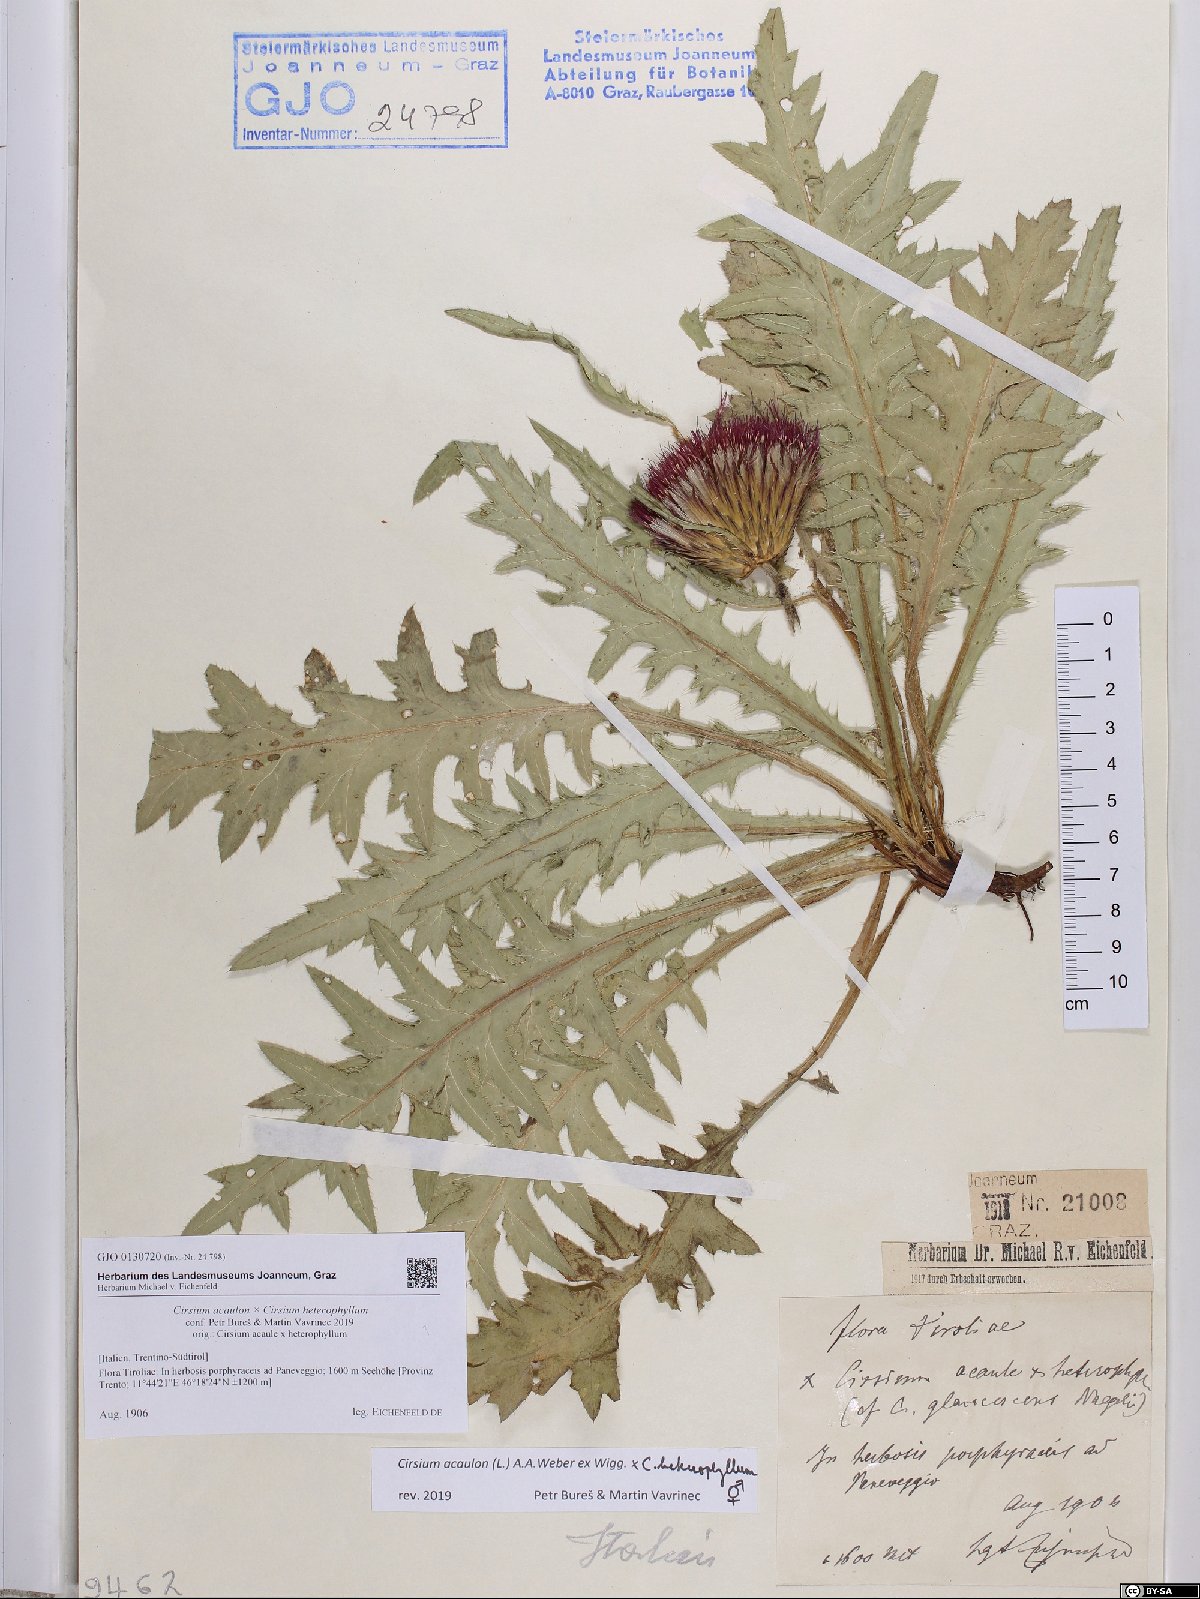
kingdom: Plantae
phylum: Tracheophyta
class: Magnoliopsida
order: Asterales
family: Asteraceae
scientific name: Asteraceae
